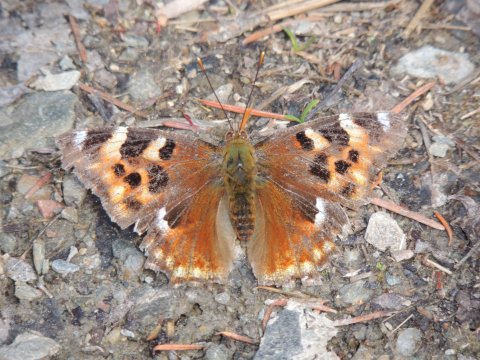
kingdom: Animalia
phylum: Arthropoda
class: Insecta
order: Lepidoptera
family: Nymphalidae
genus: Polygonia
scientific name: Polygonia vaualbum
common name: Compton Tortoiseshell
